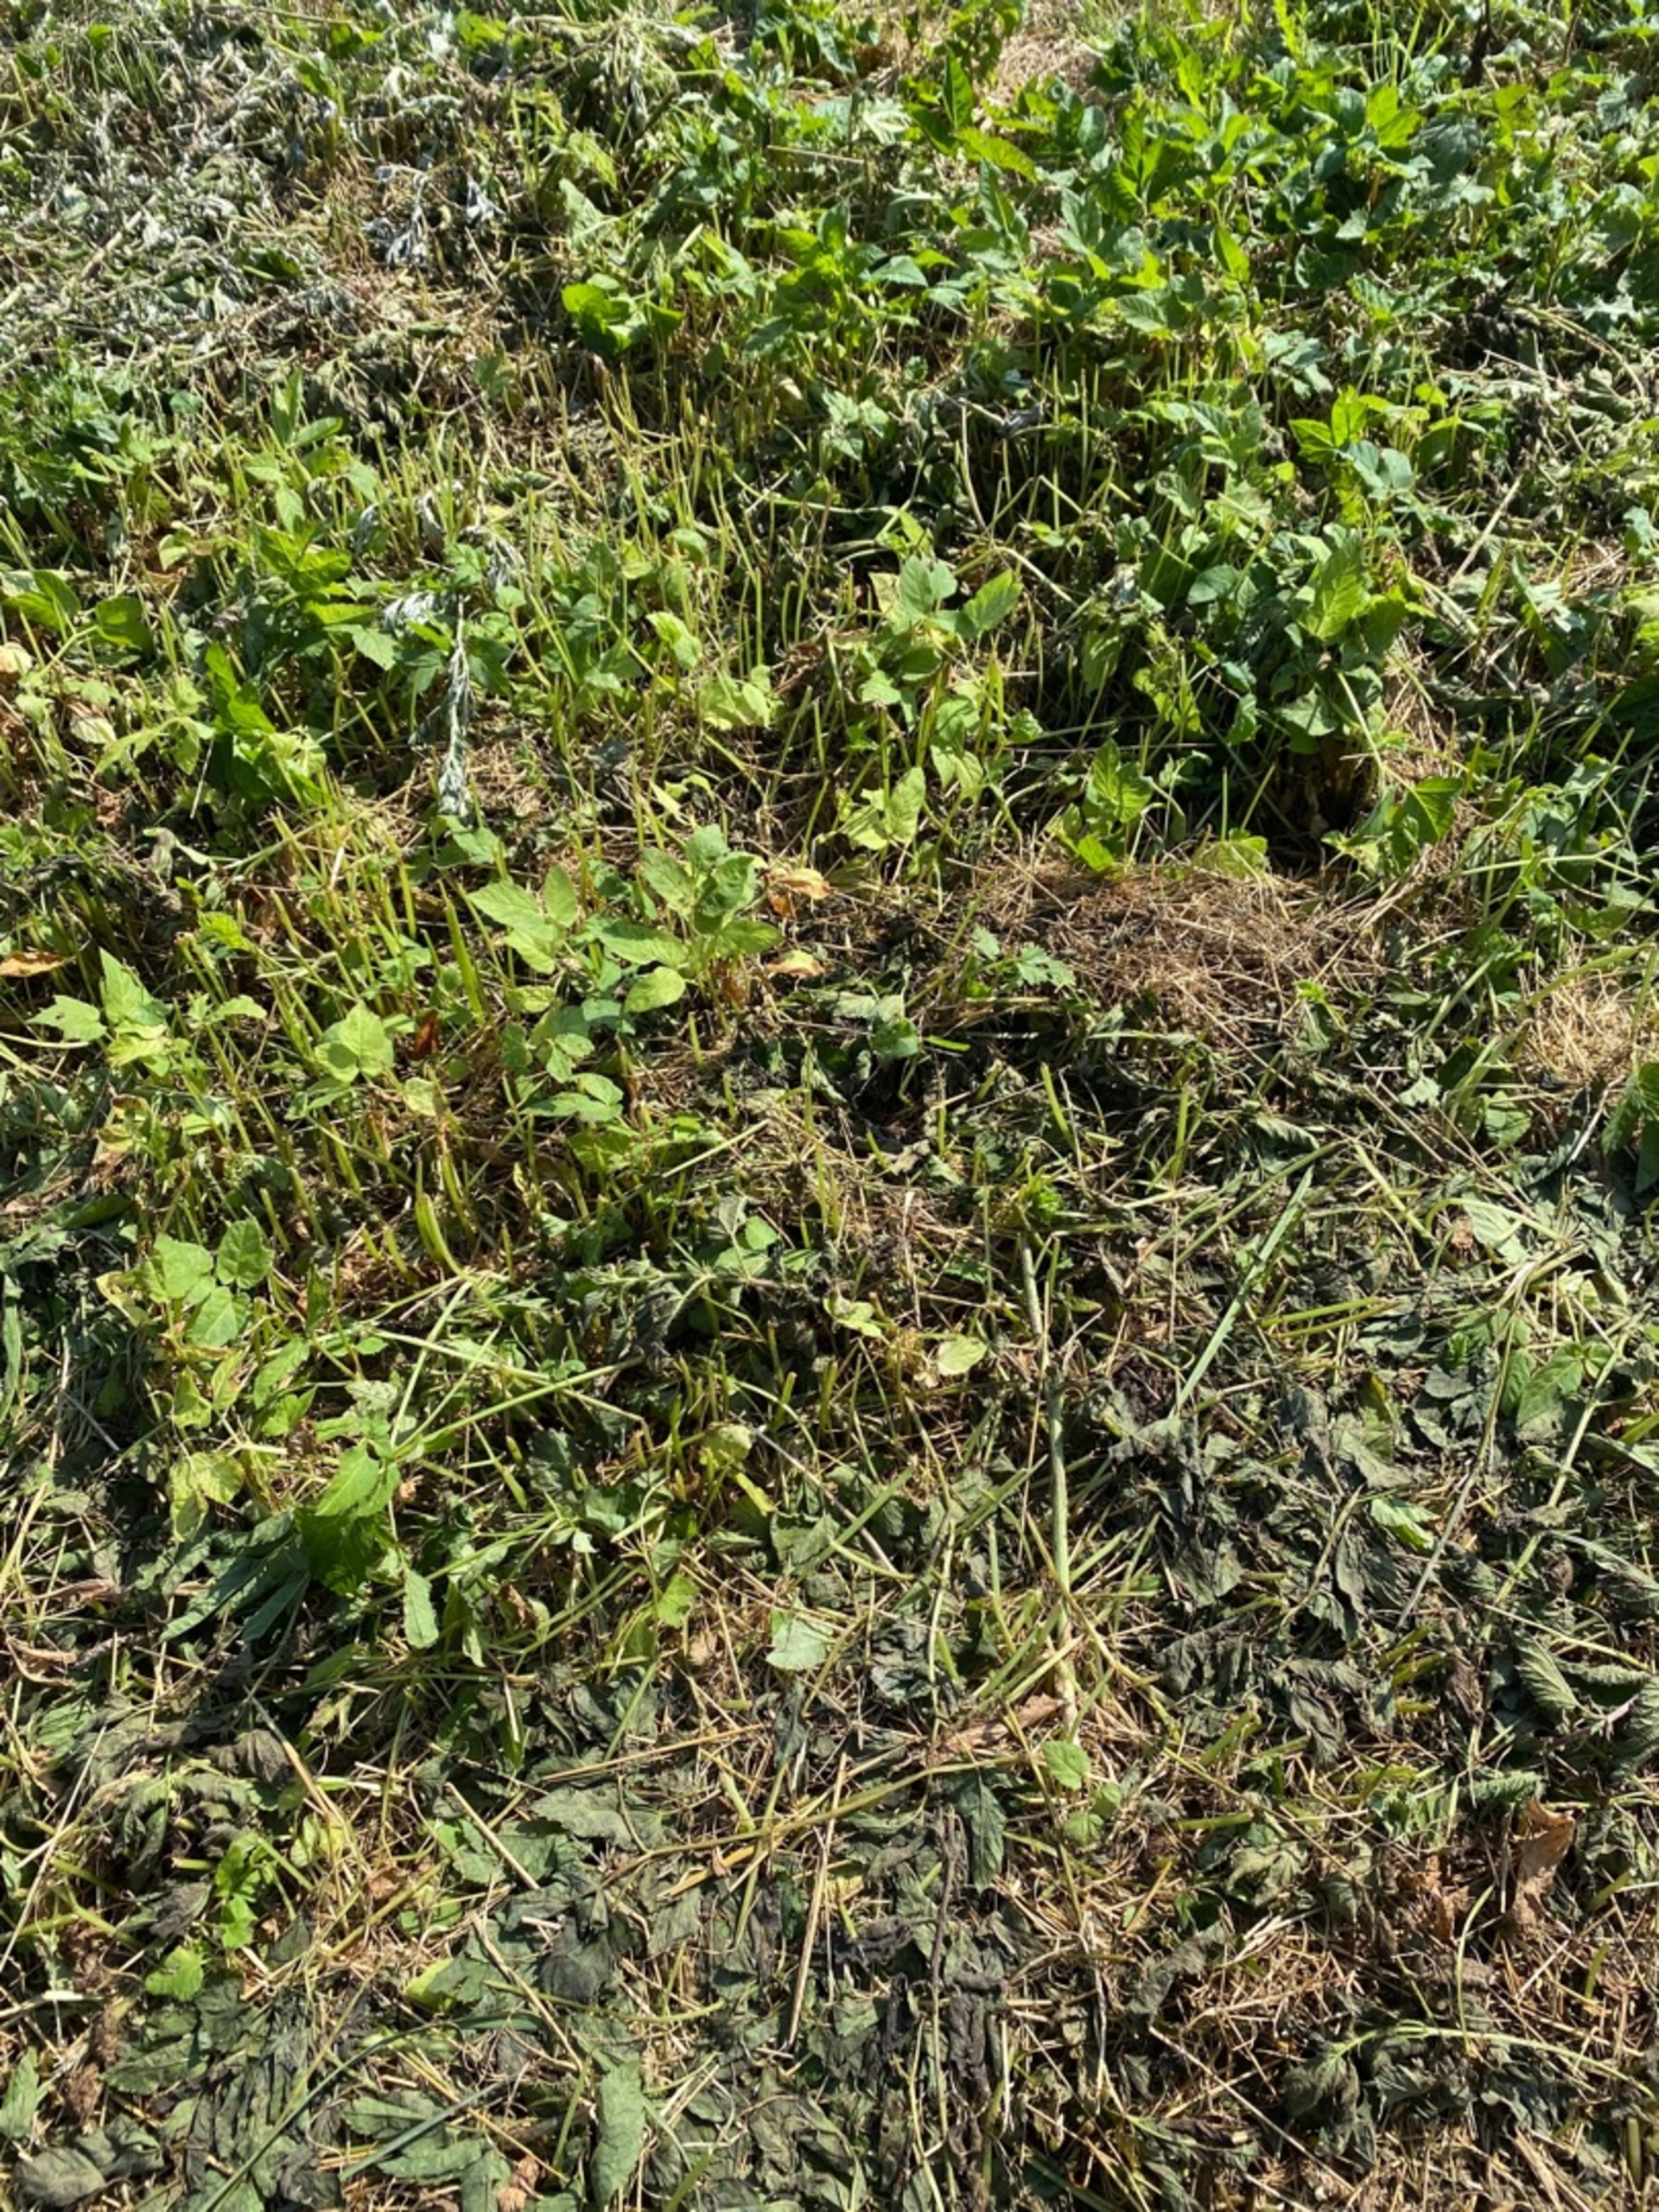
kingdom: Animalia
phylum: Chordata
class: Squamata
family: Lacertidae
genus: Lacerta
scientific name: Lacerta agilis
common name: Markfirben
